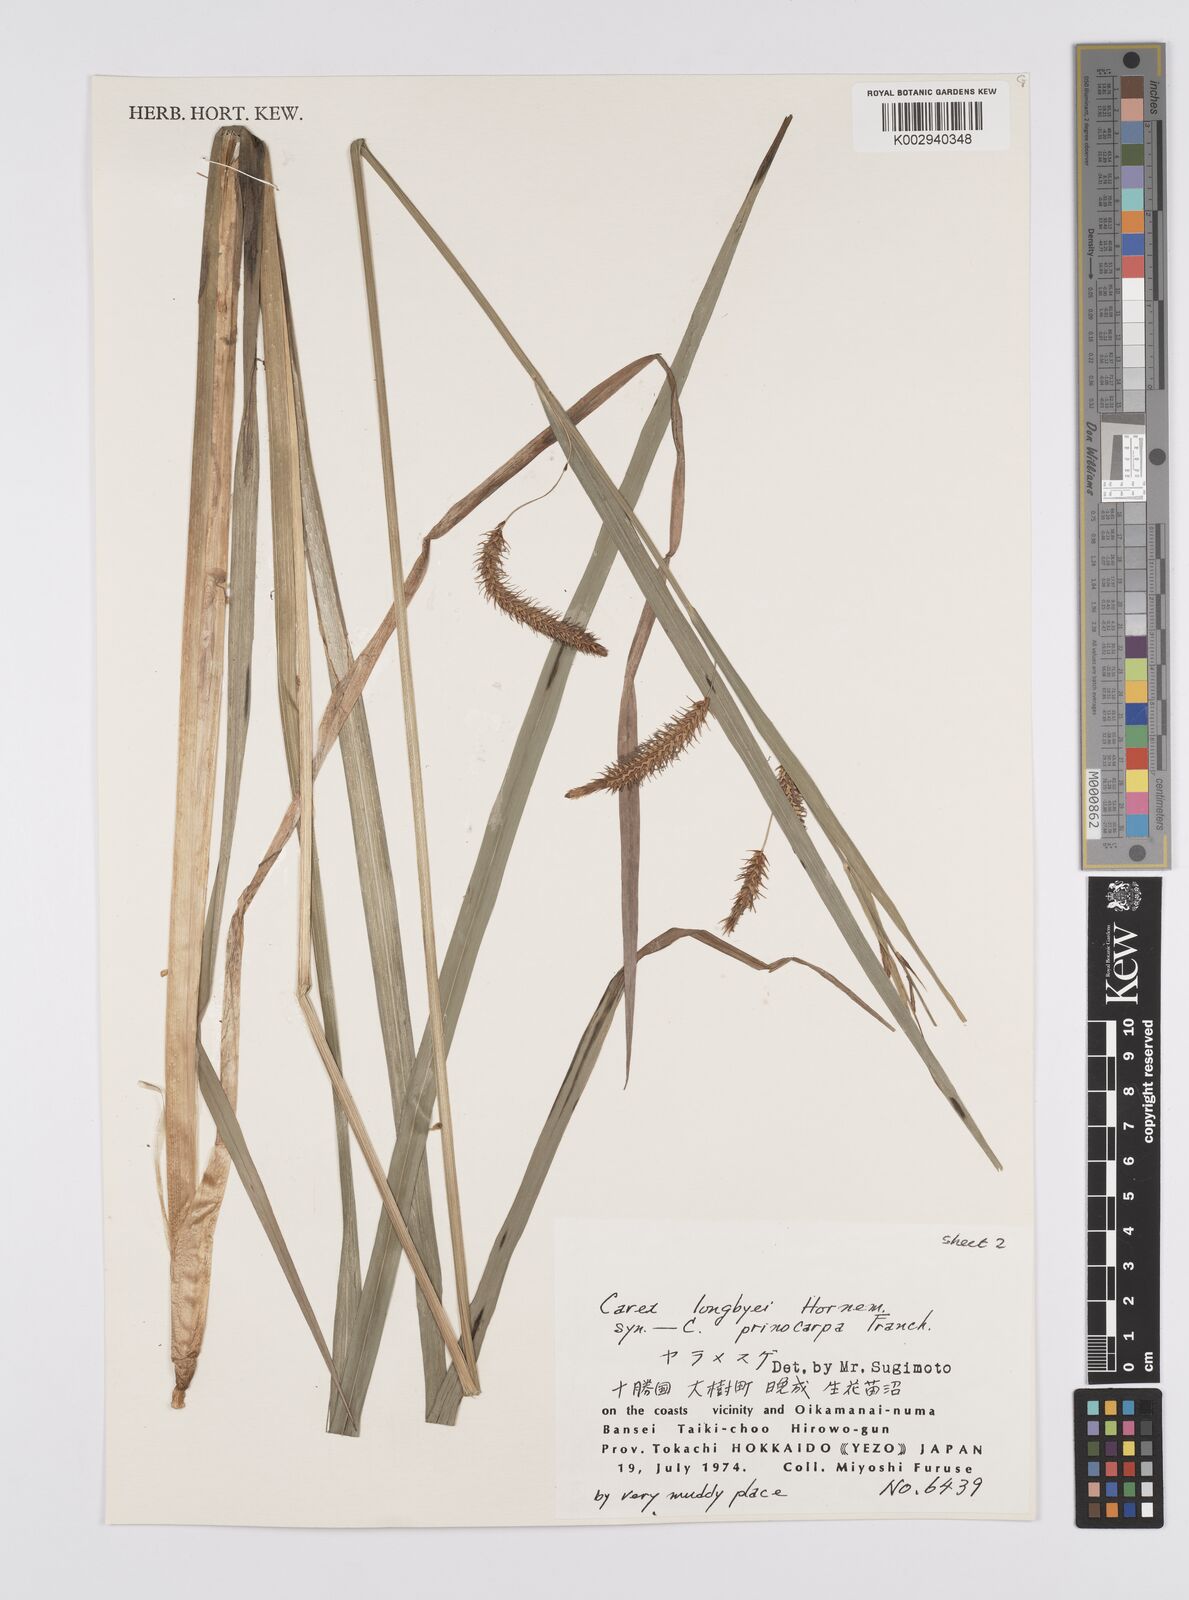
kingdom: Plantae
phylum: Tracheophyta
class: Liliopsida
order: Poales
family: Cyperaceae
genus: Carex
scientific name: Carex lyngbyei
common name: Lyngbye's sedge
